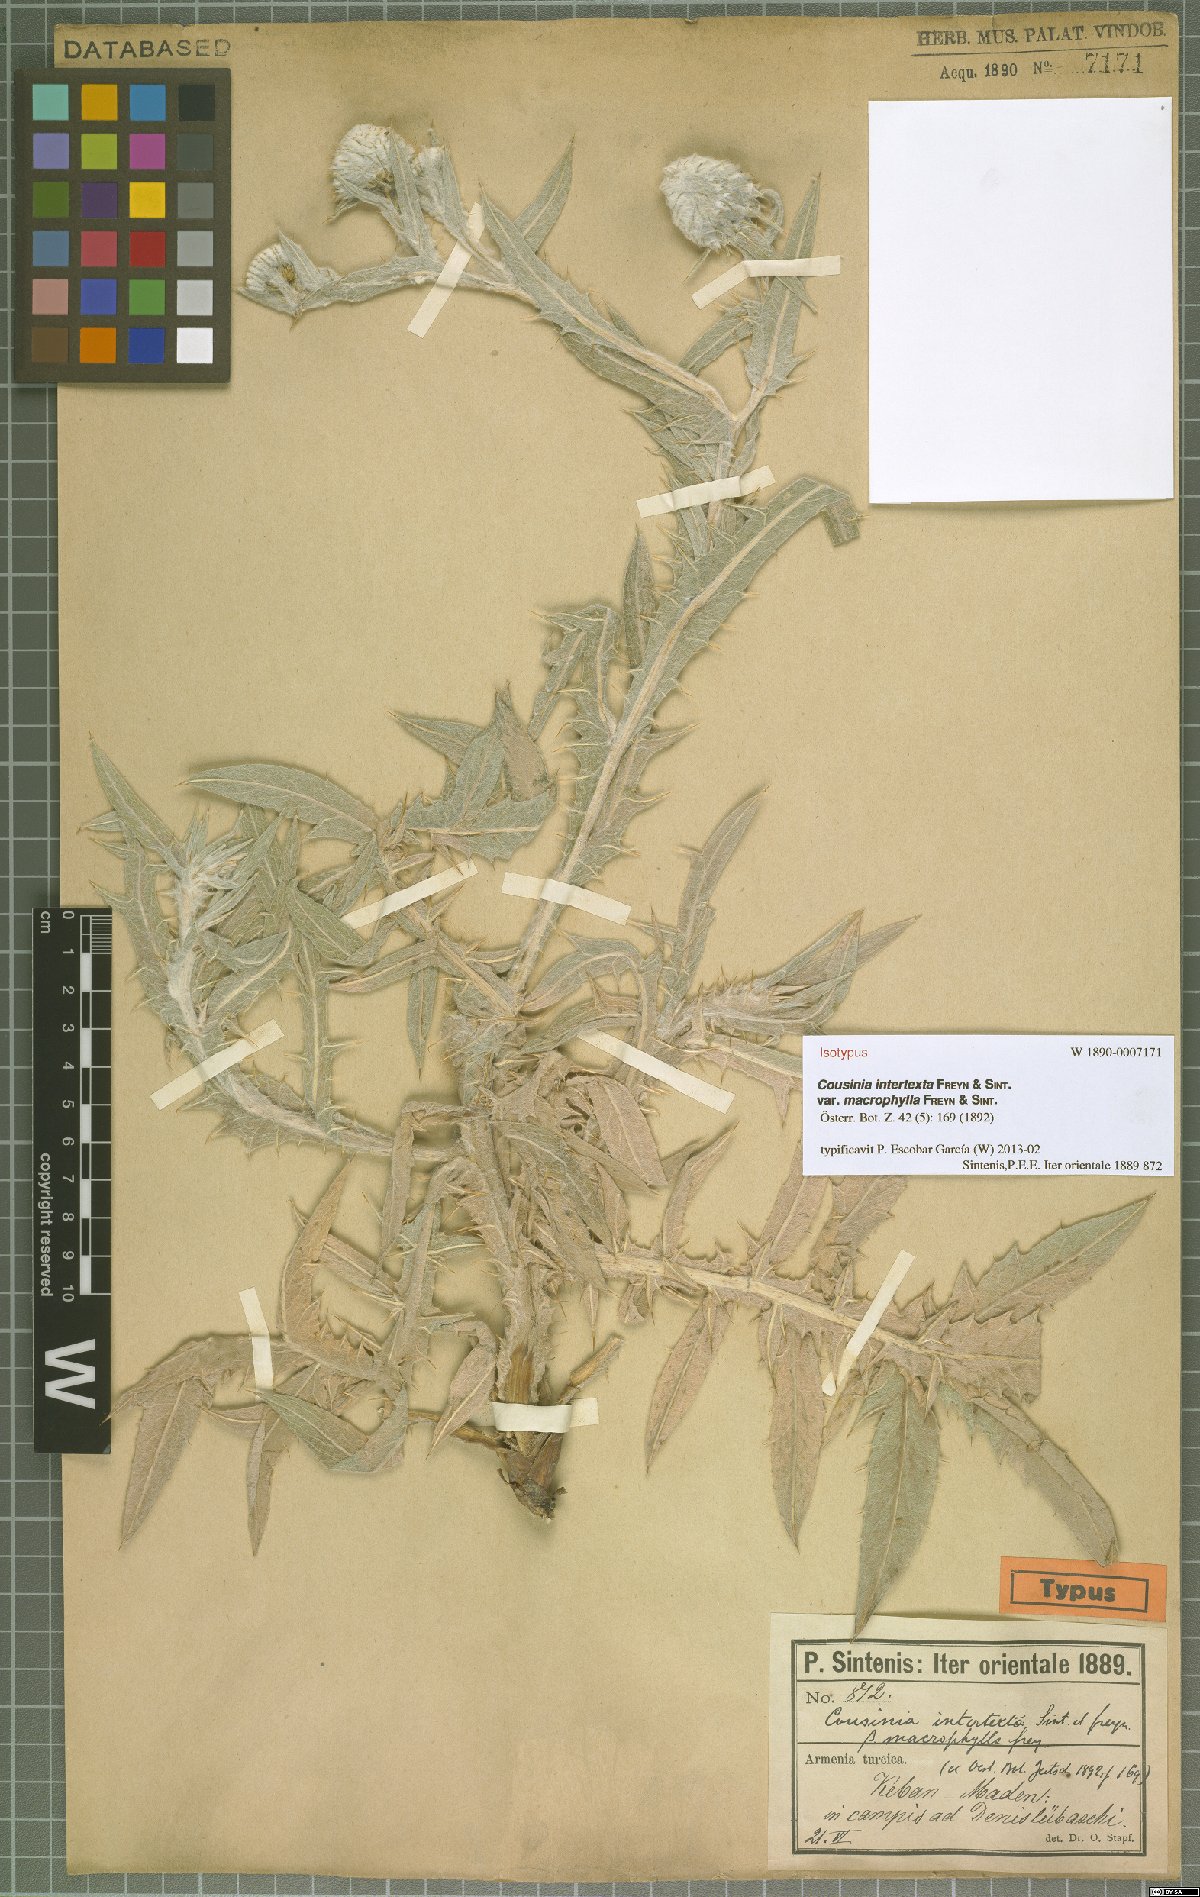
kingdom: Plantae
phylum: Tracheophyta
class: Magnoliopsida
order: Asterales
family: Asteraceae
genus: Cousinia
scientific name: Cousinia intertexta
